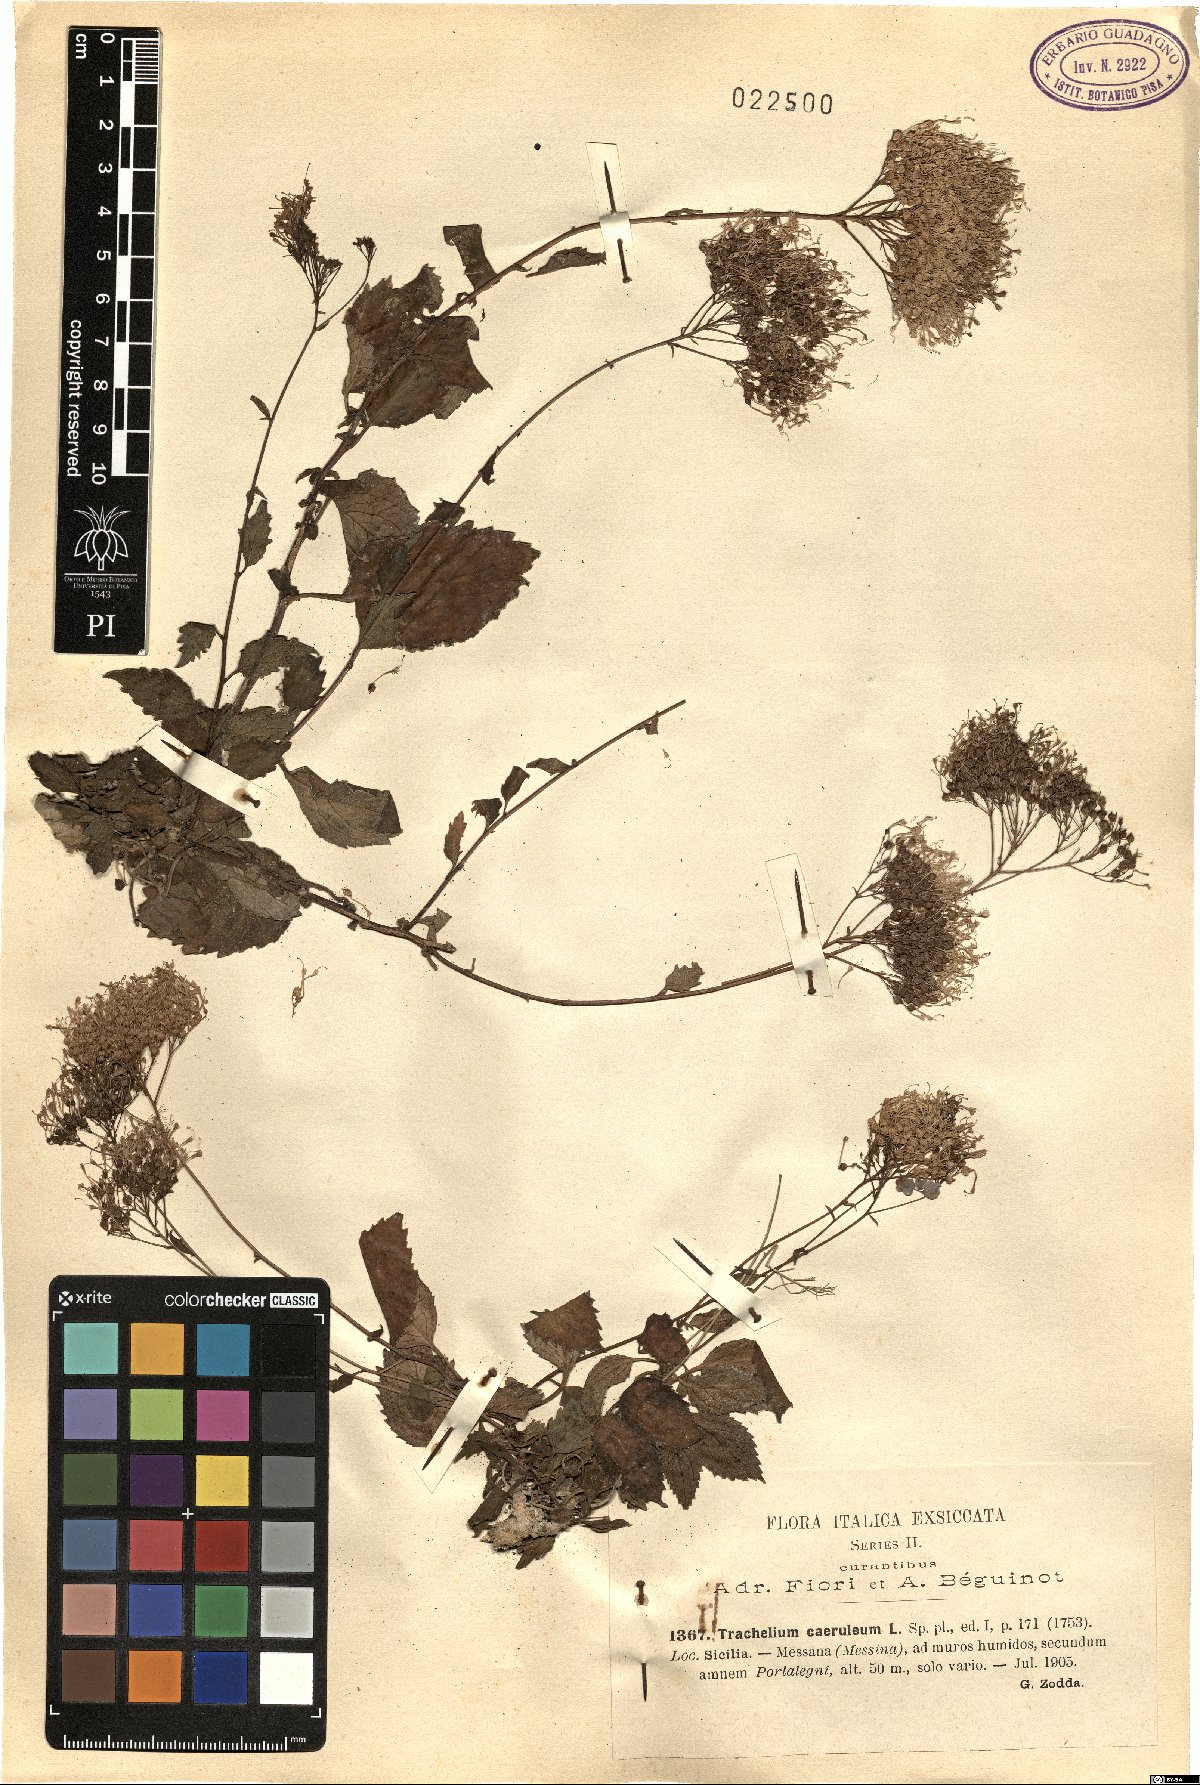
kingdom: Plantae
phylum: Tracheophyta
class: Magnoliopsida
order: Asterales
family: Campanulaceae
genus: Trachelium
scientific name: Trachelium caeruleum
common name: Throatwort
